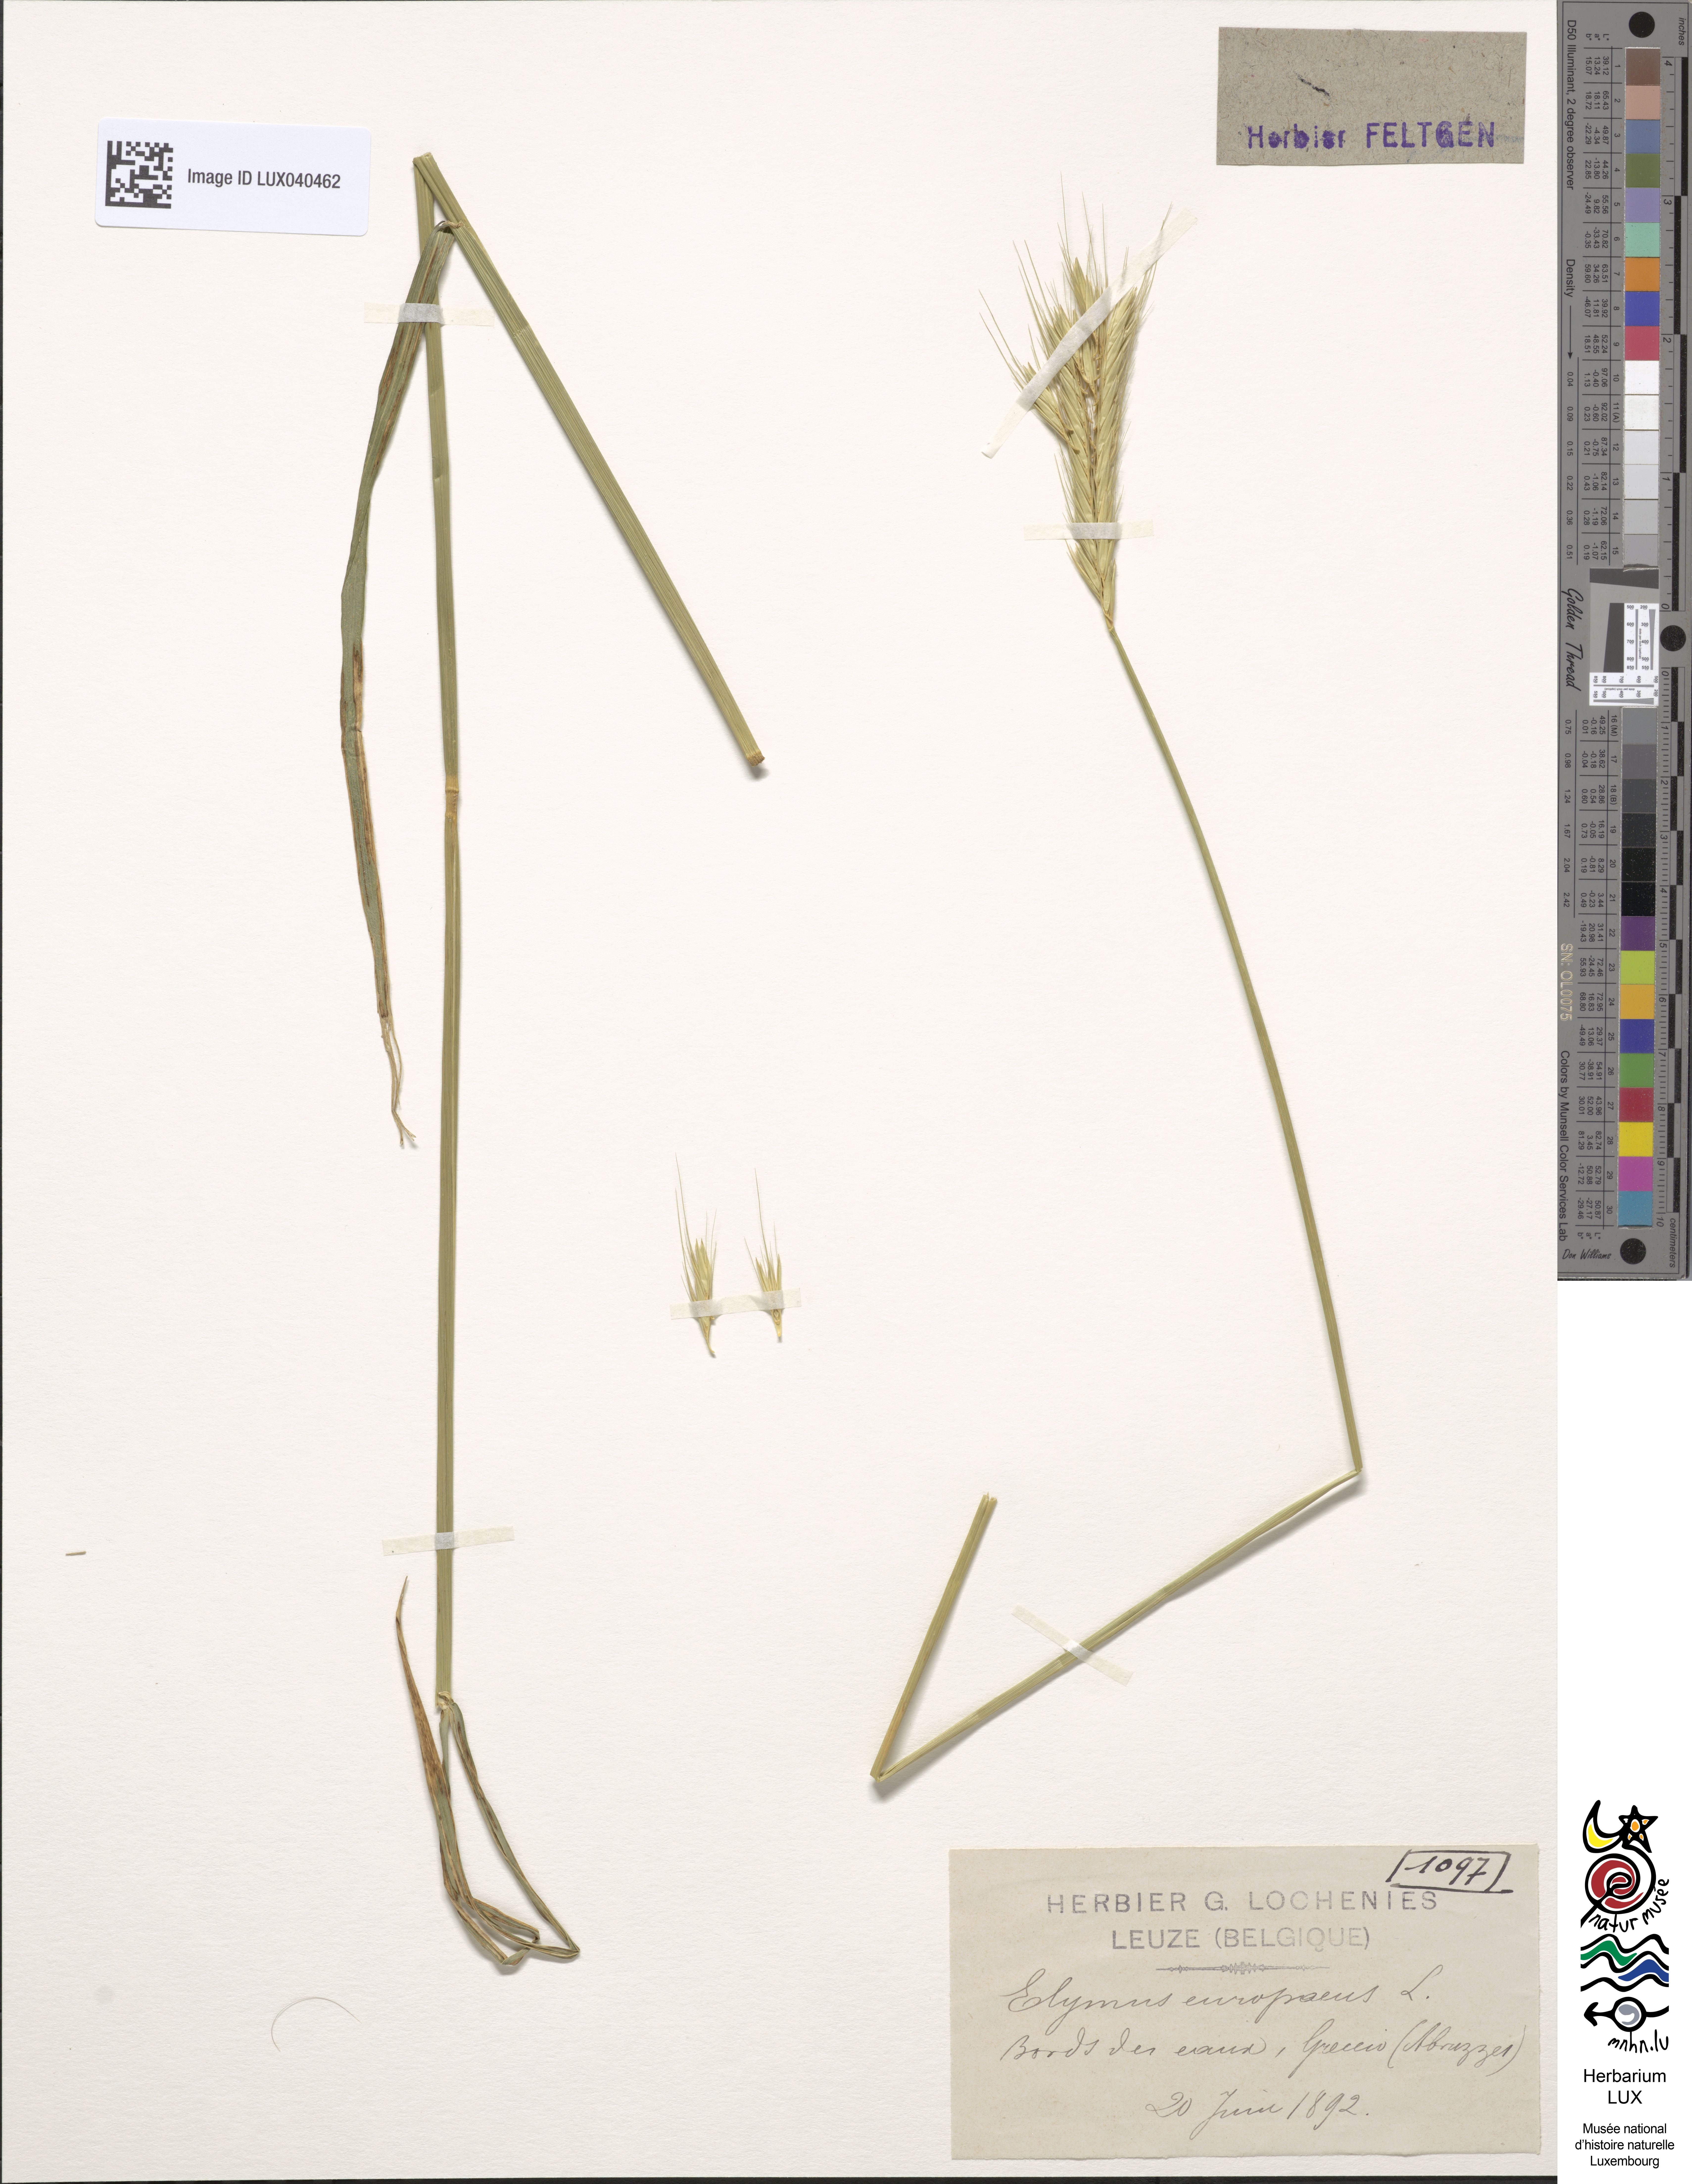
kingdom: Plantae
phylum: Tracheophyta
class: Liliopsida
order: Poales
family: Poaceae
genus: Hordelymus
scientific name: Hordelymus europaeus
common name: Wood-barley
